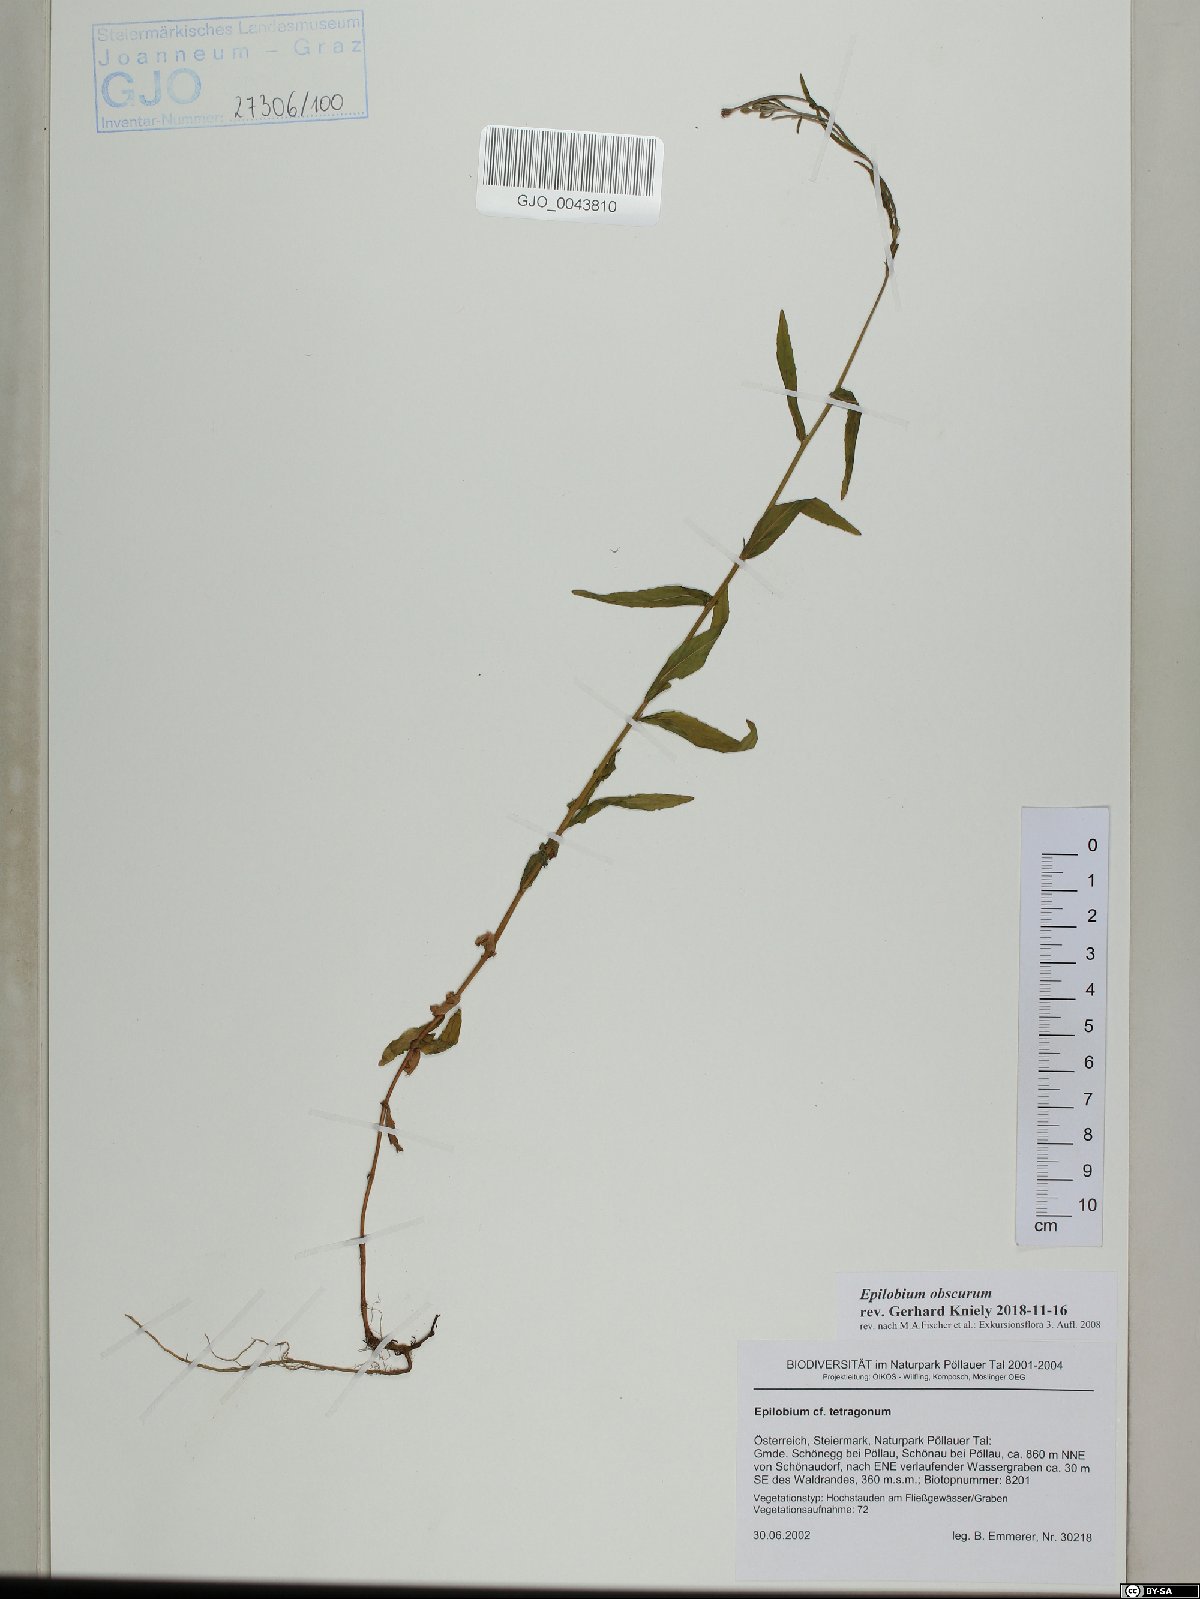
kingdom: Plantae
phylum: Tracheophyta
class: Magnoliopsida
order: Myrtales
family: Onagraceae
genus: Epilobium
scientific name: Epilobium obscurum
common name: Short-fruited willowherb
